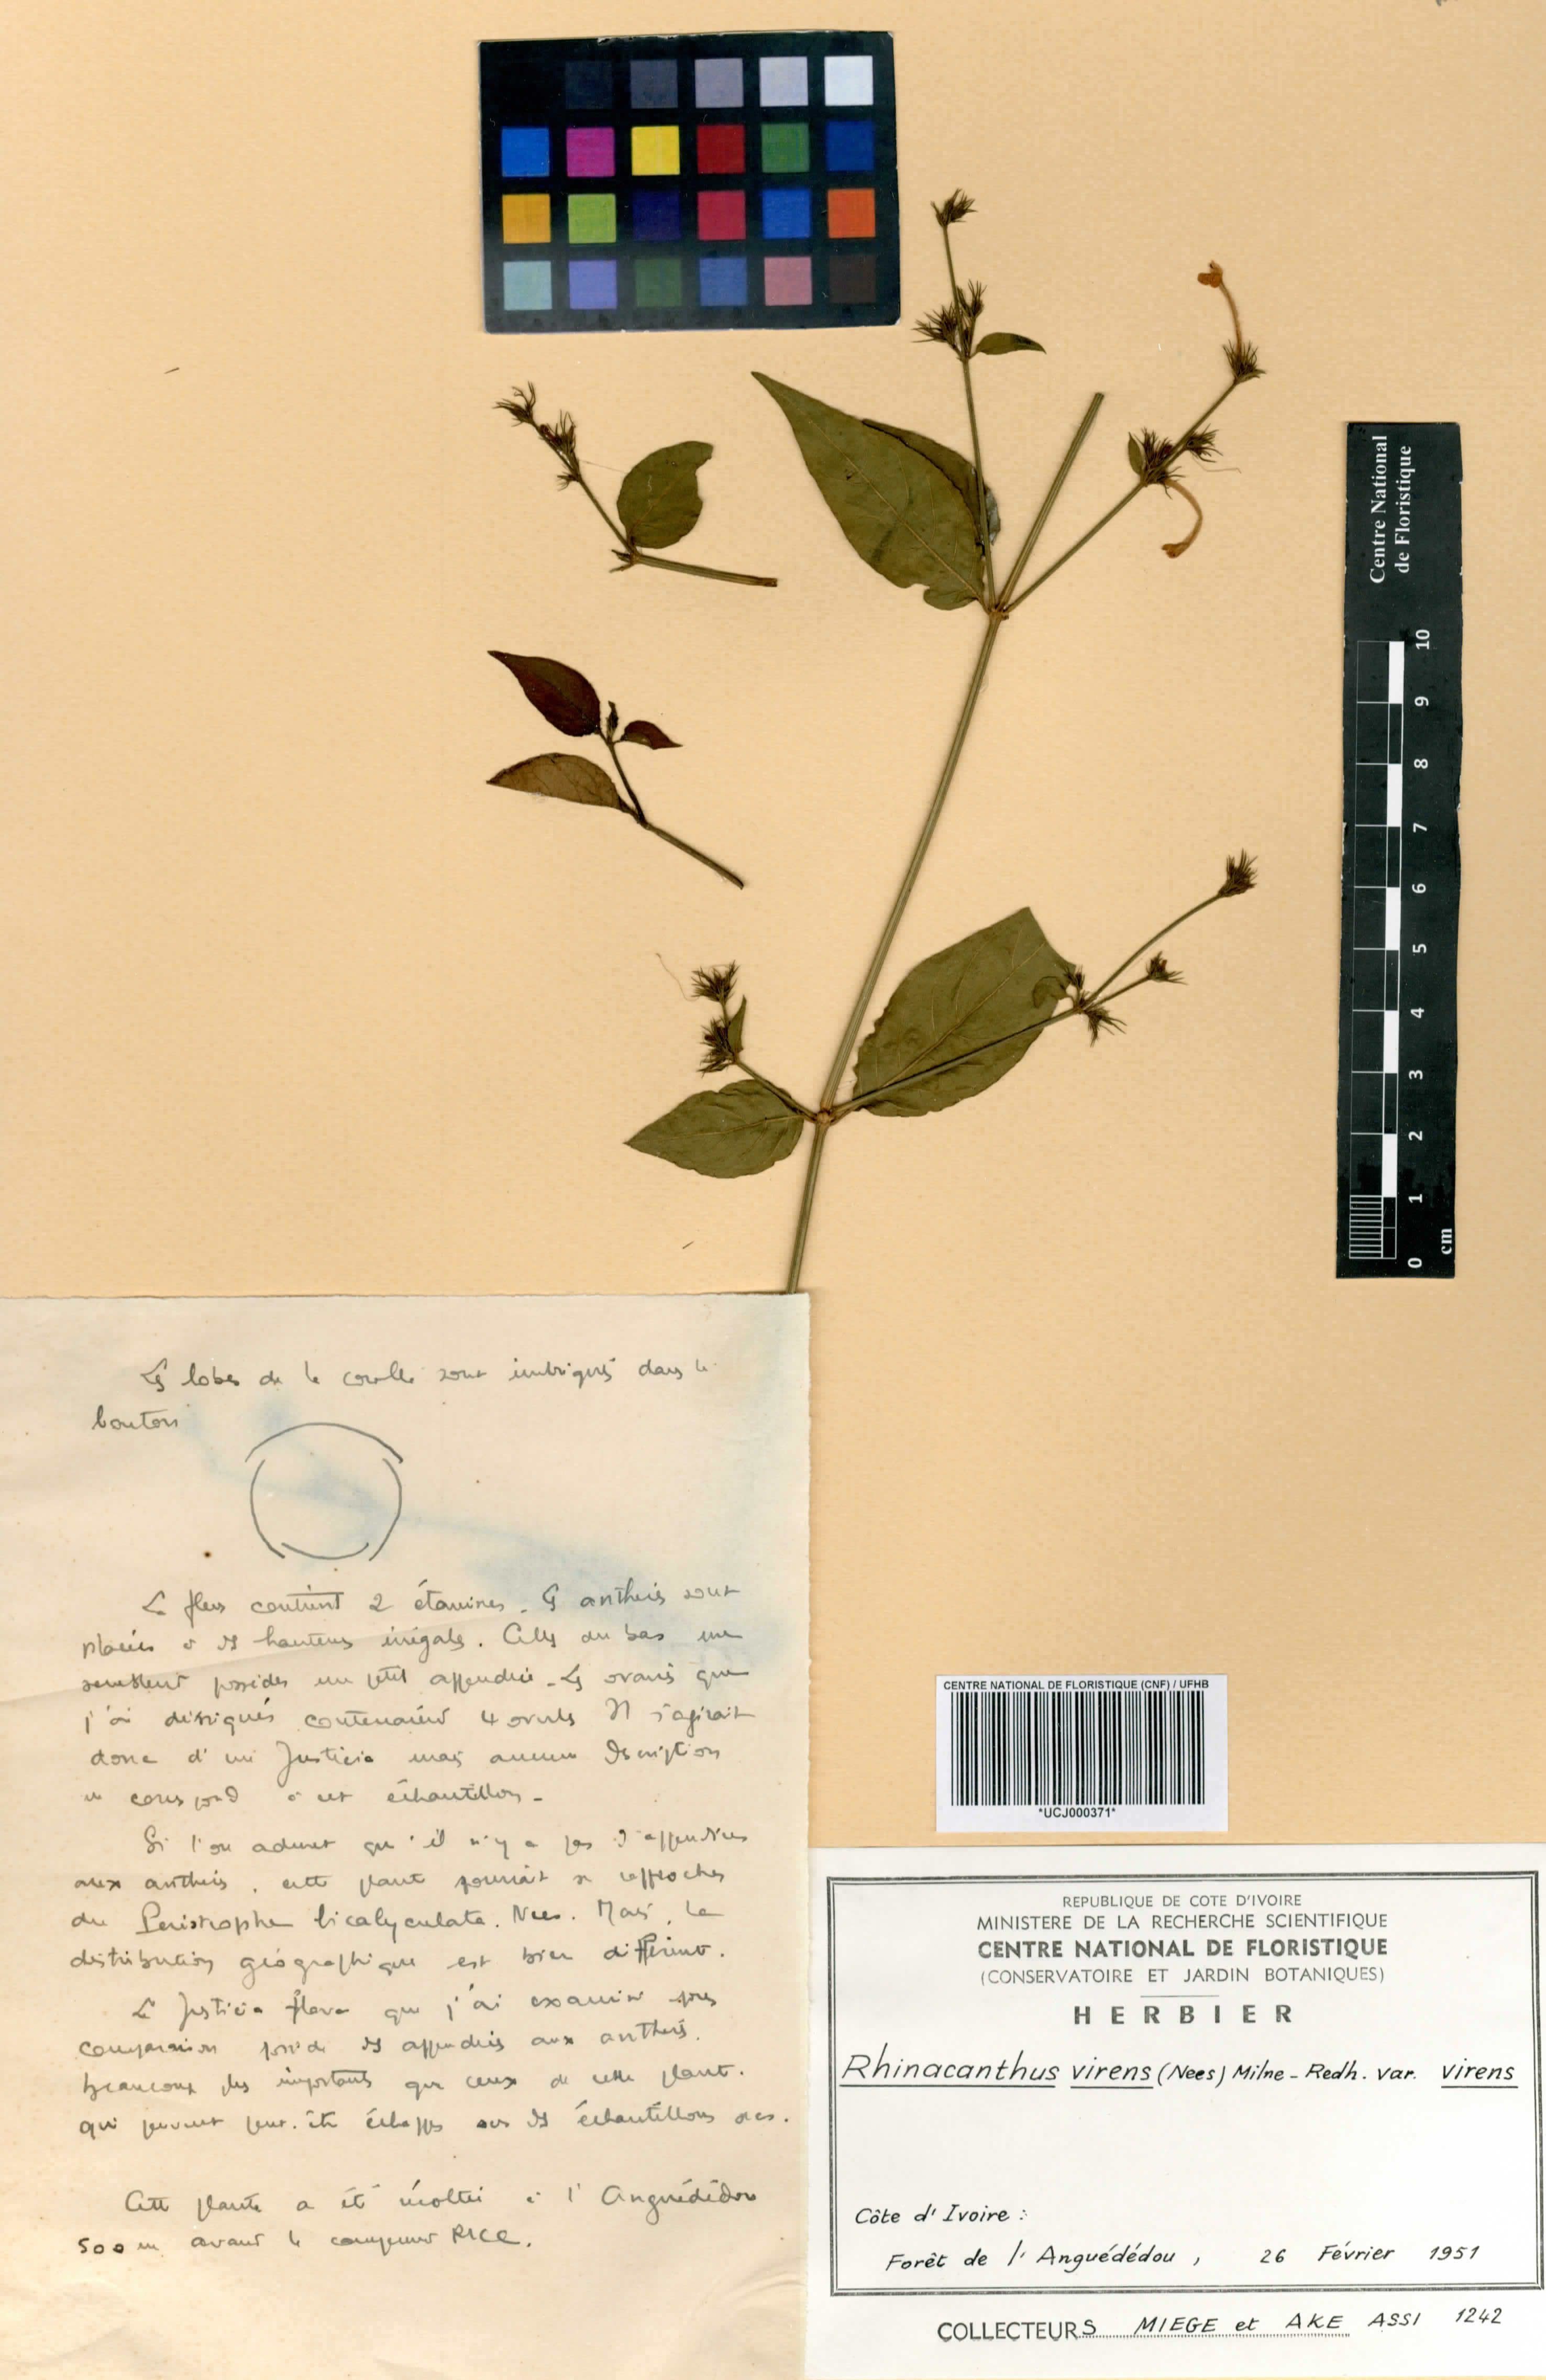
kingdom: Plantae
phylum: Tracheophyta
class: Magnoliopsida
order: Lamiales
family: Acanthaceae
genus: Rhinacanthus
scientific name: Rhinacanthus virens
